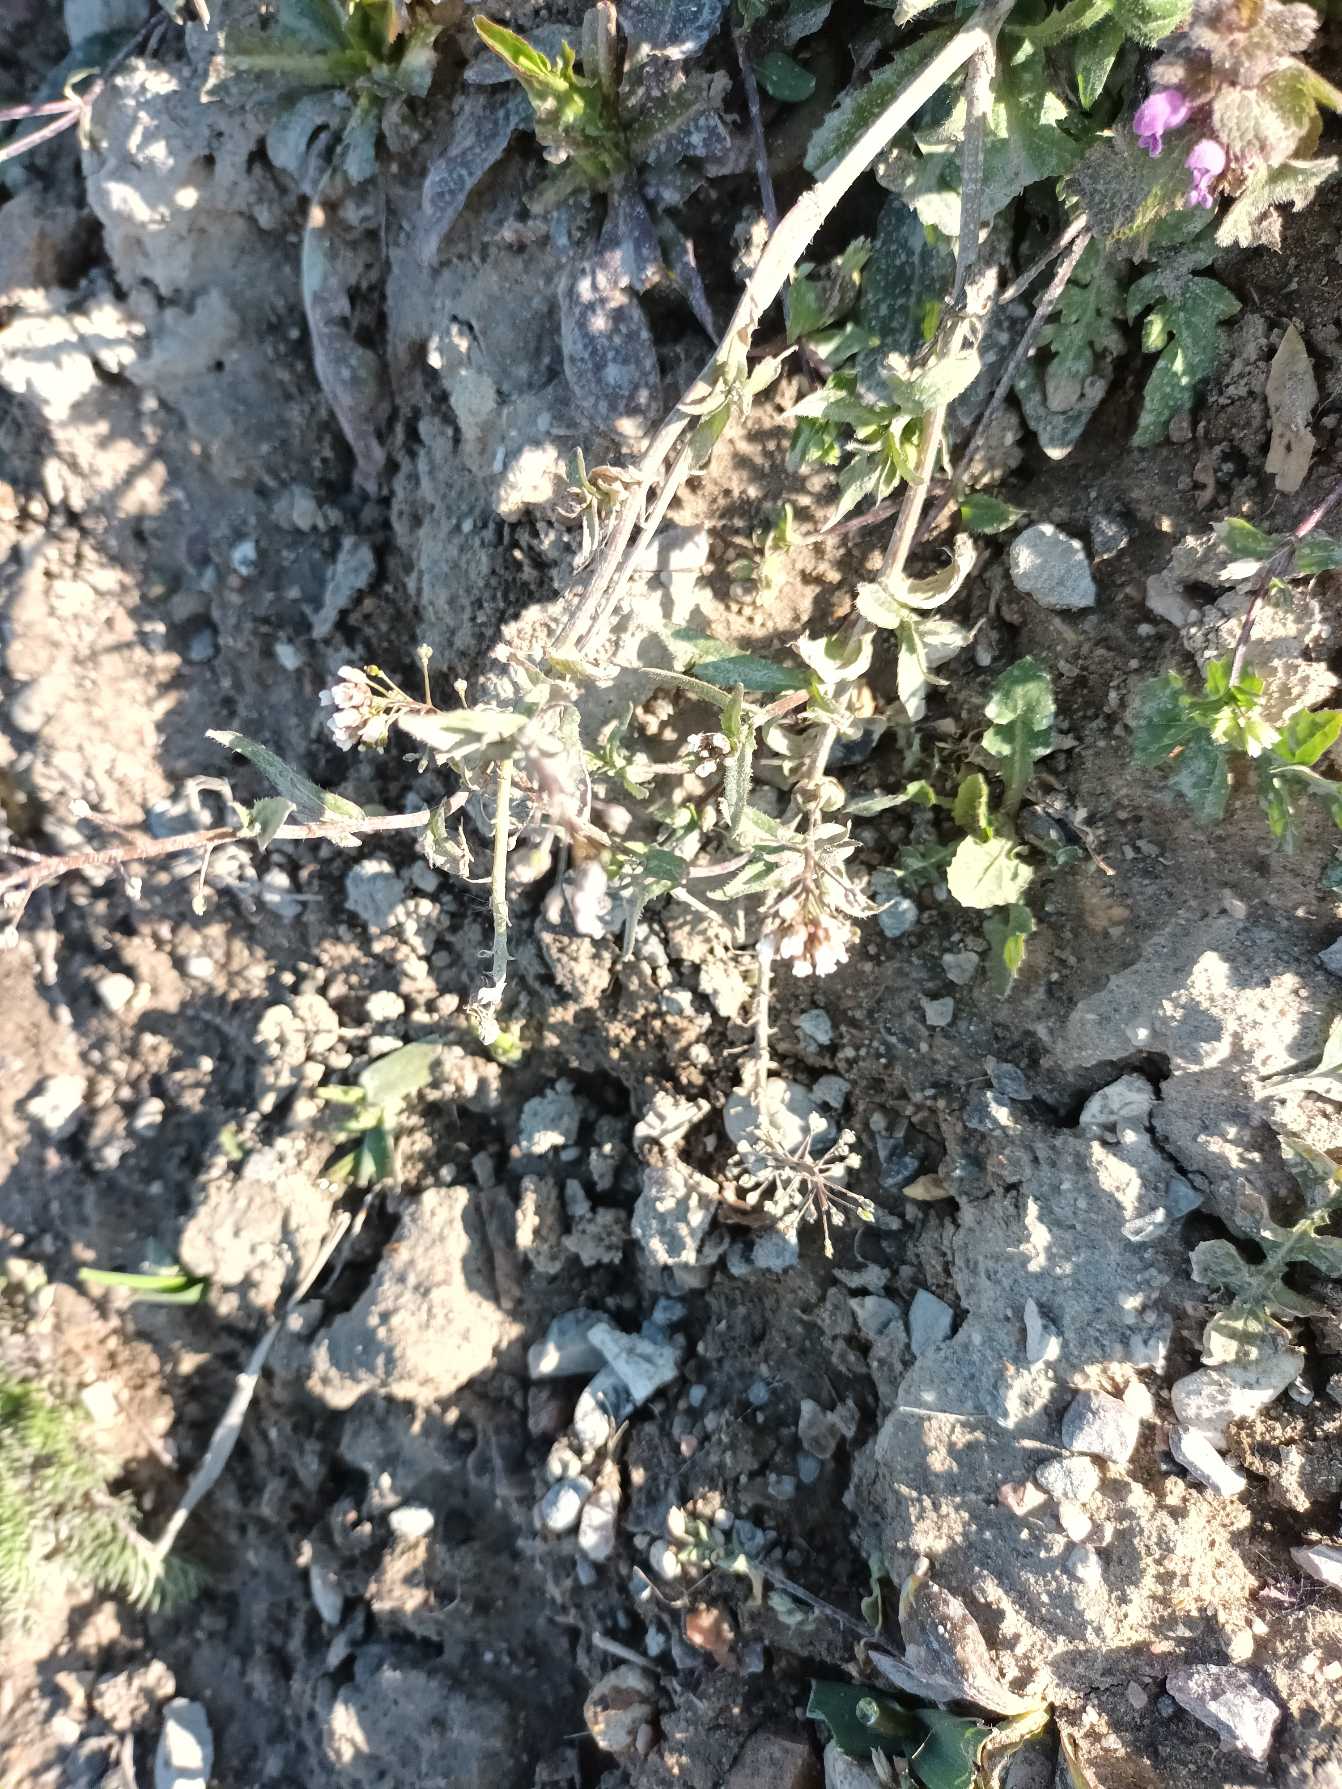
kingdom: Plantae
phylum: Tracheophyta
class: Magnoliopsida
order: Brassicales
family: Brassicaceae
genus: Capsella
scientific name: Capsella bursa-pastoris
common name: Hyrdetaske
